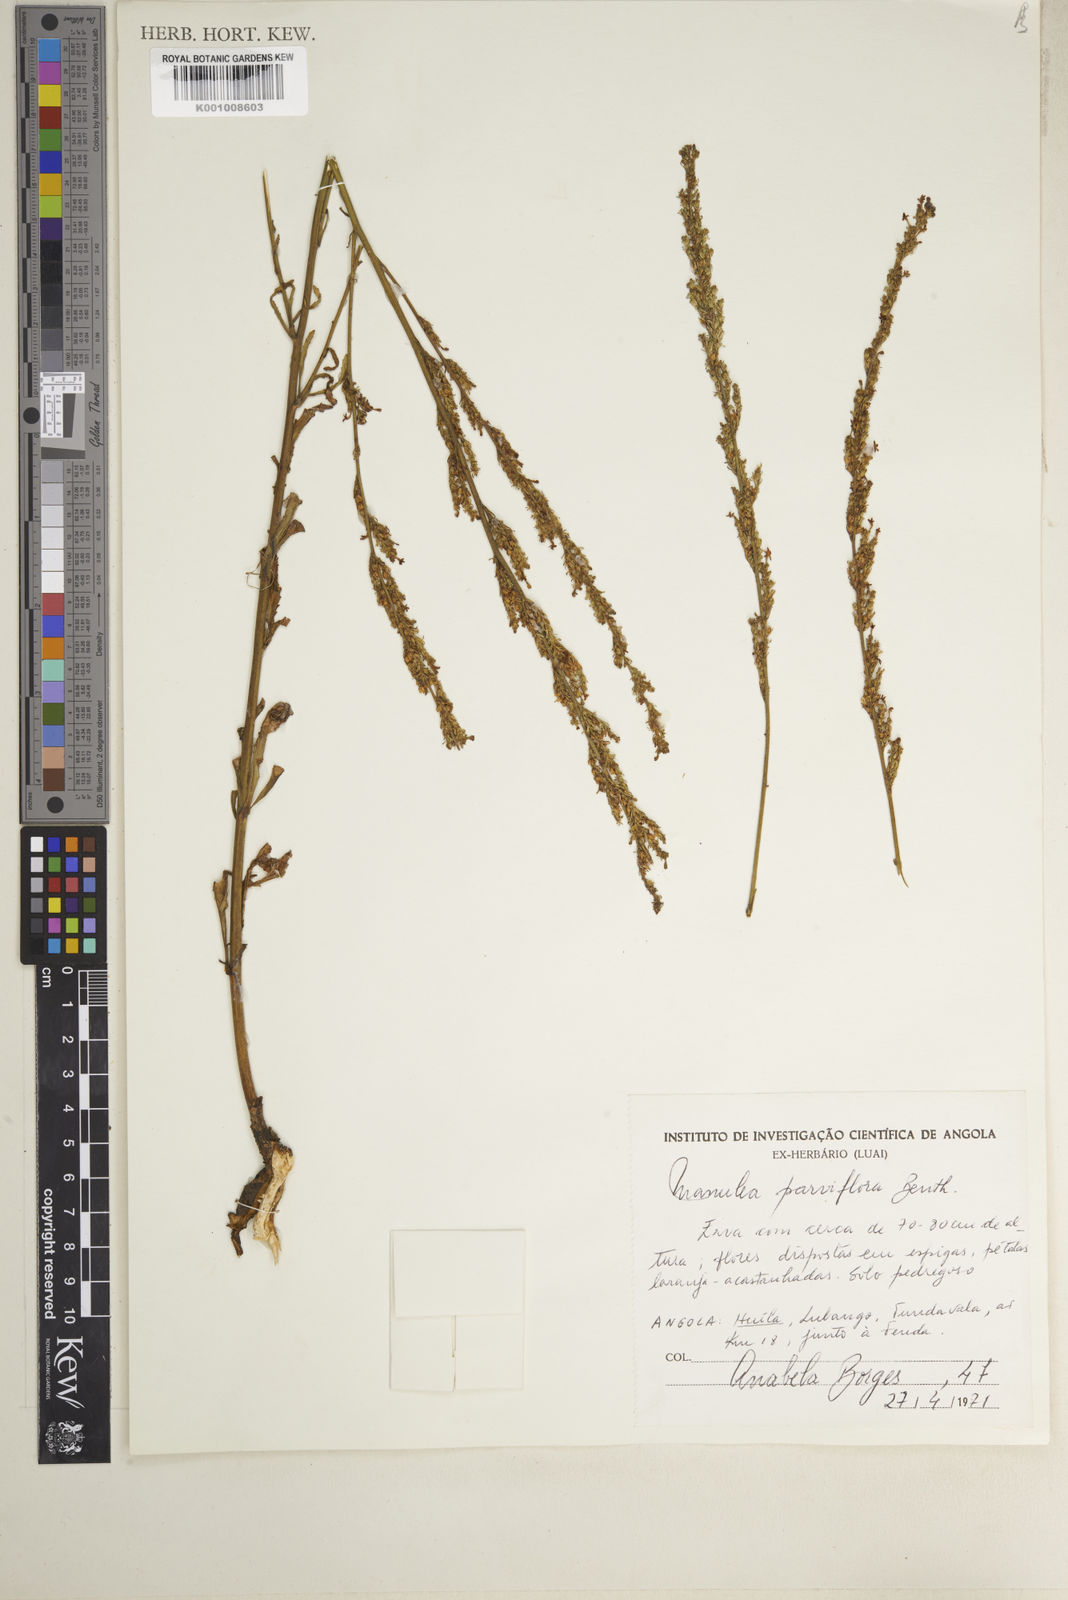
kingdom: Plantae
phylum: Tracheophyta
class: Magnoliopsida
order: Lamiales
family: Scrophulariaceae
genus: Manulea
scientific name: Manulea parviflora
